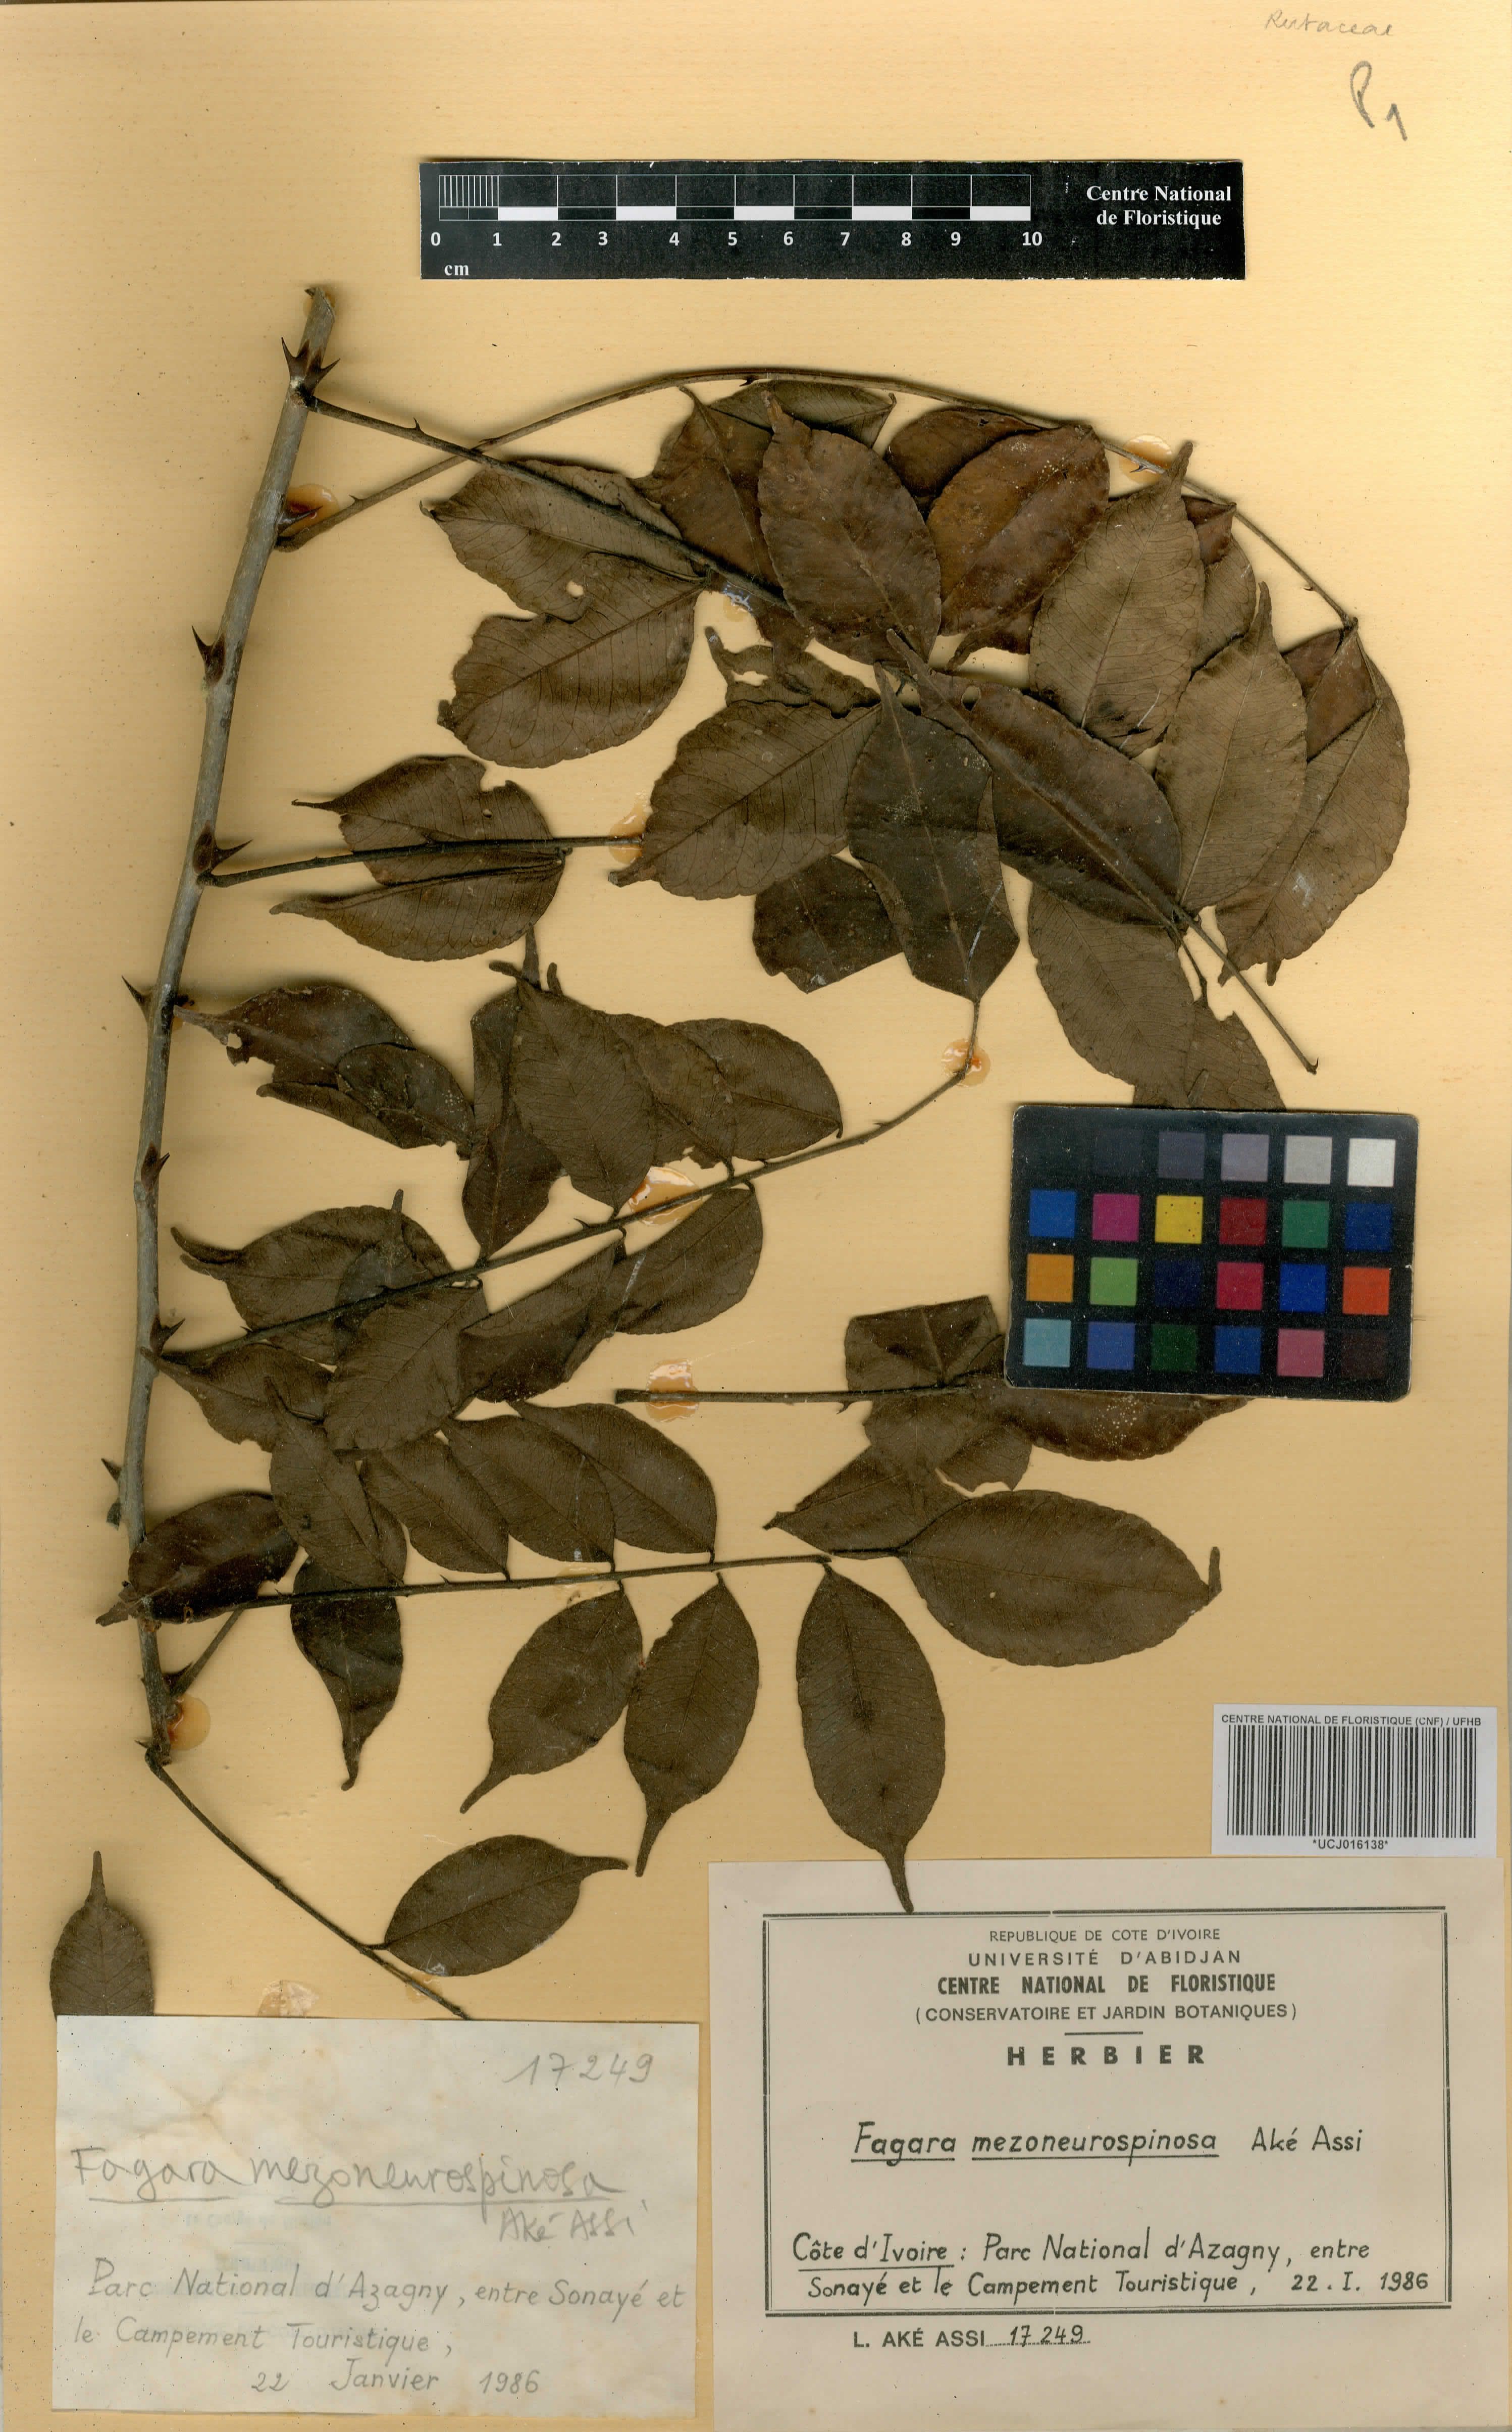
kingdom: Plantae
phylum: Tracheophyta
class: Magnoliopsida
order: Sapindales
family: Rutaceae
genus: Zanthoxylum
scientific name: Zanthoxylum mezoneurispinosum
